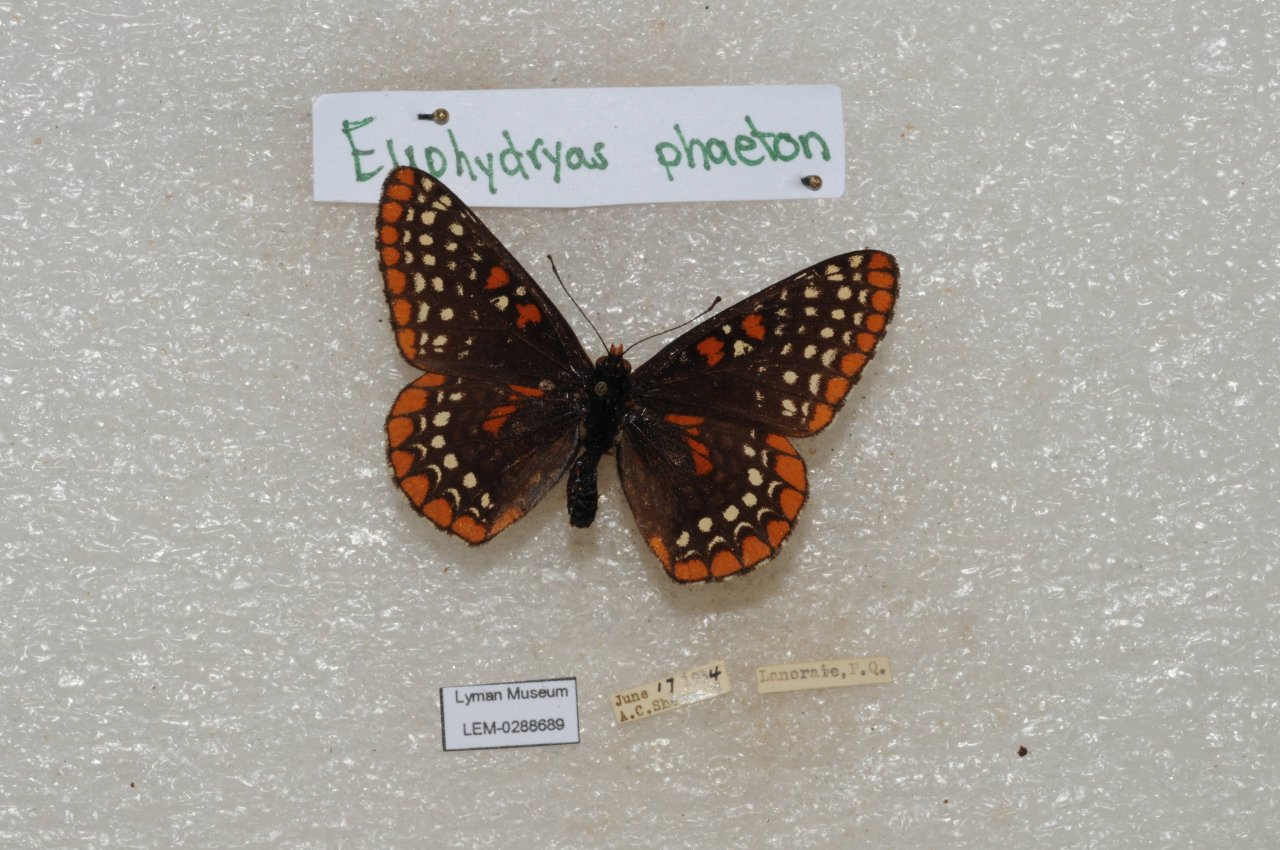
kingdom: Animalia
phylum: Arthropoda
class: Insecta
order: Lepidoptera
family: Nymphalidae
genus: Euphydryas
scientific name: Euphydryas phaeton
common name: Baltimore Checkerspot
